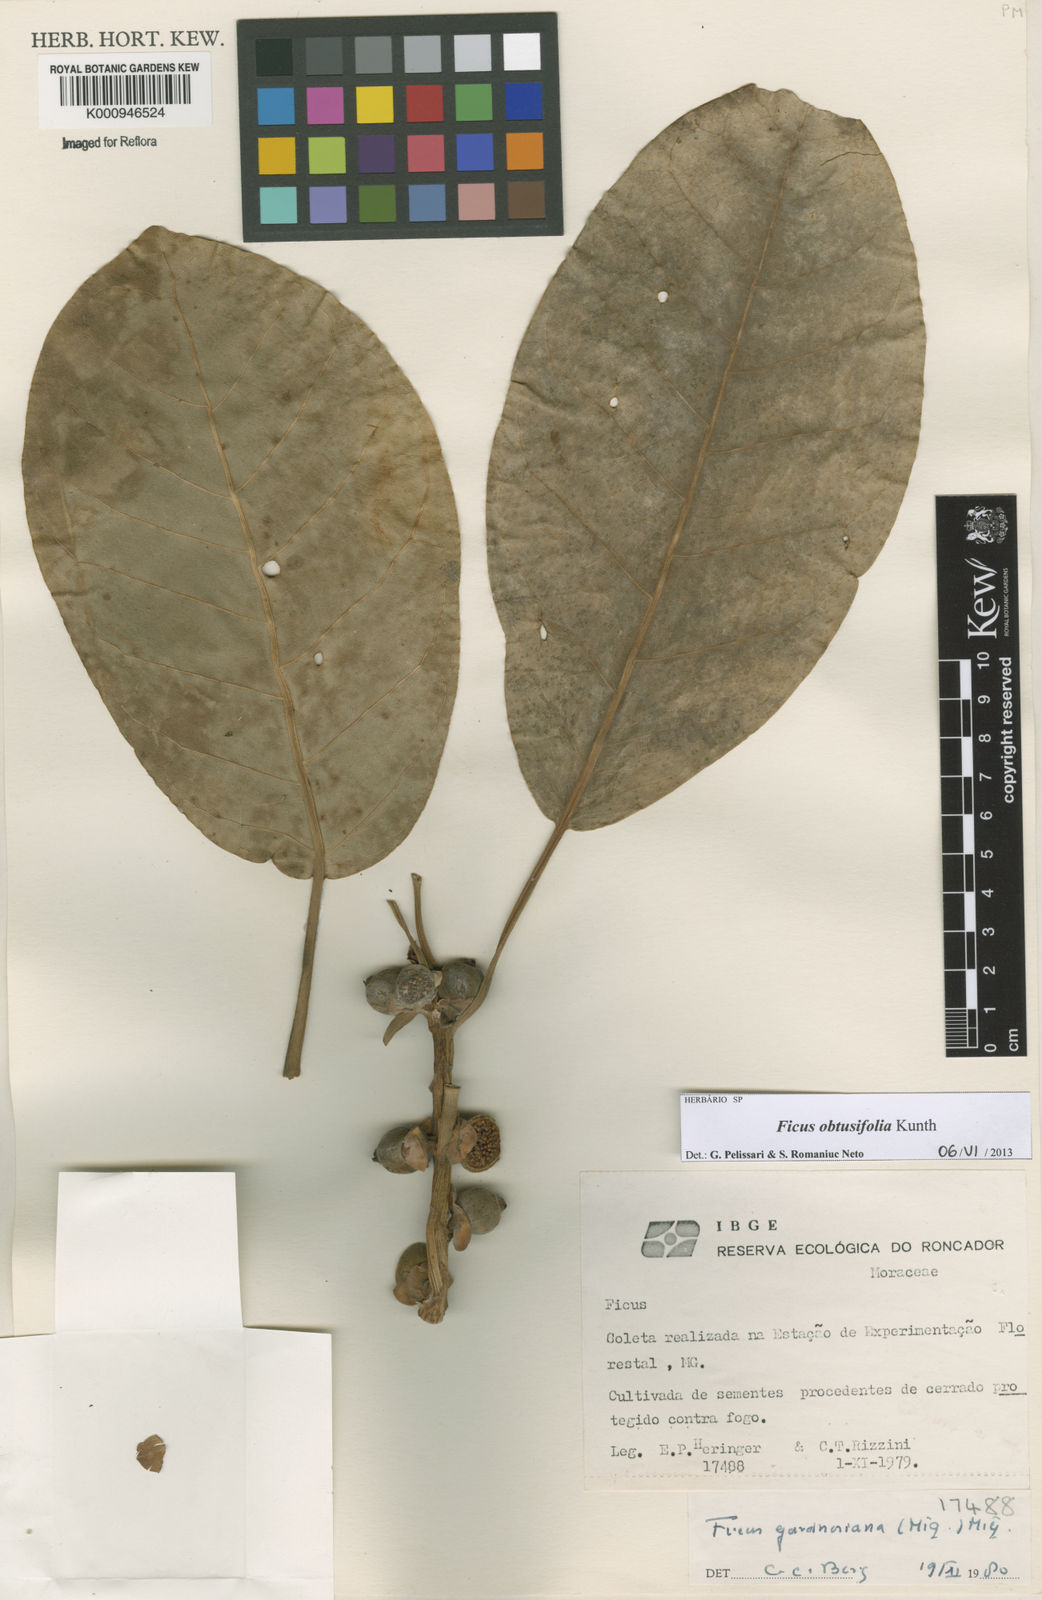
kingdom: Plantae
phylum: Tracheophyta
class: Magnoliopsida
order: Rosales
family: Moraceae
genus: Ficus
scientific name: Ficus obtusifolia
